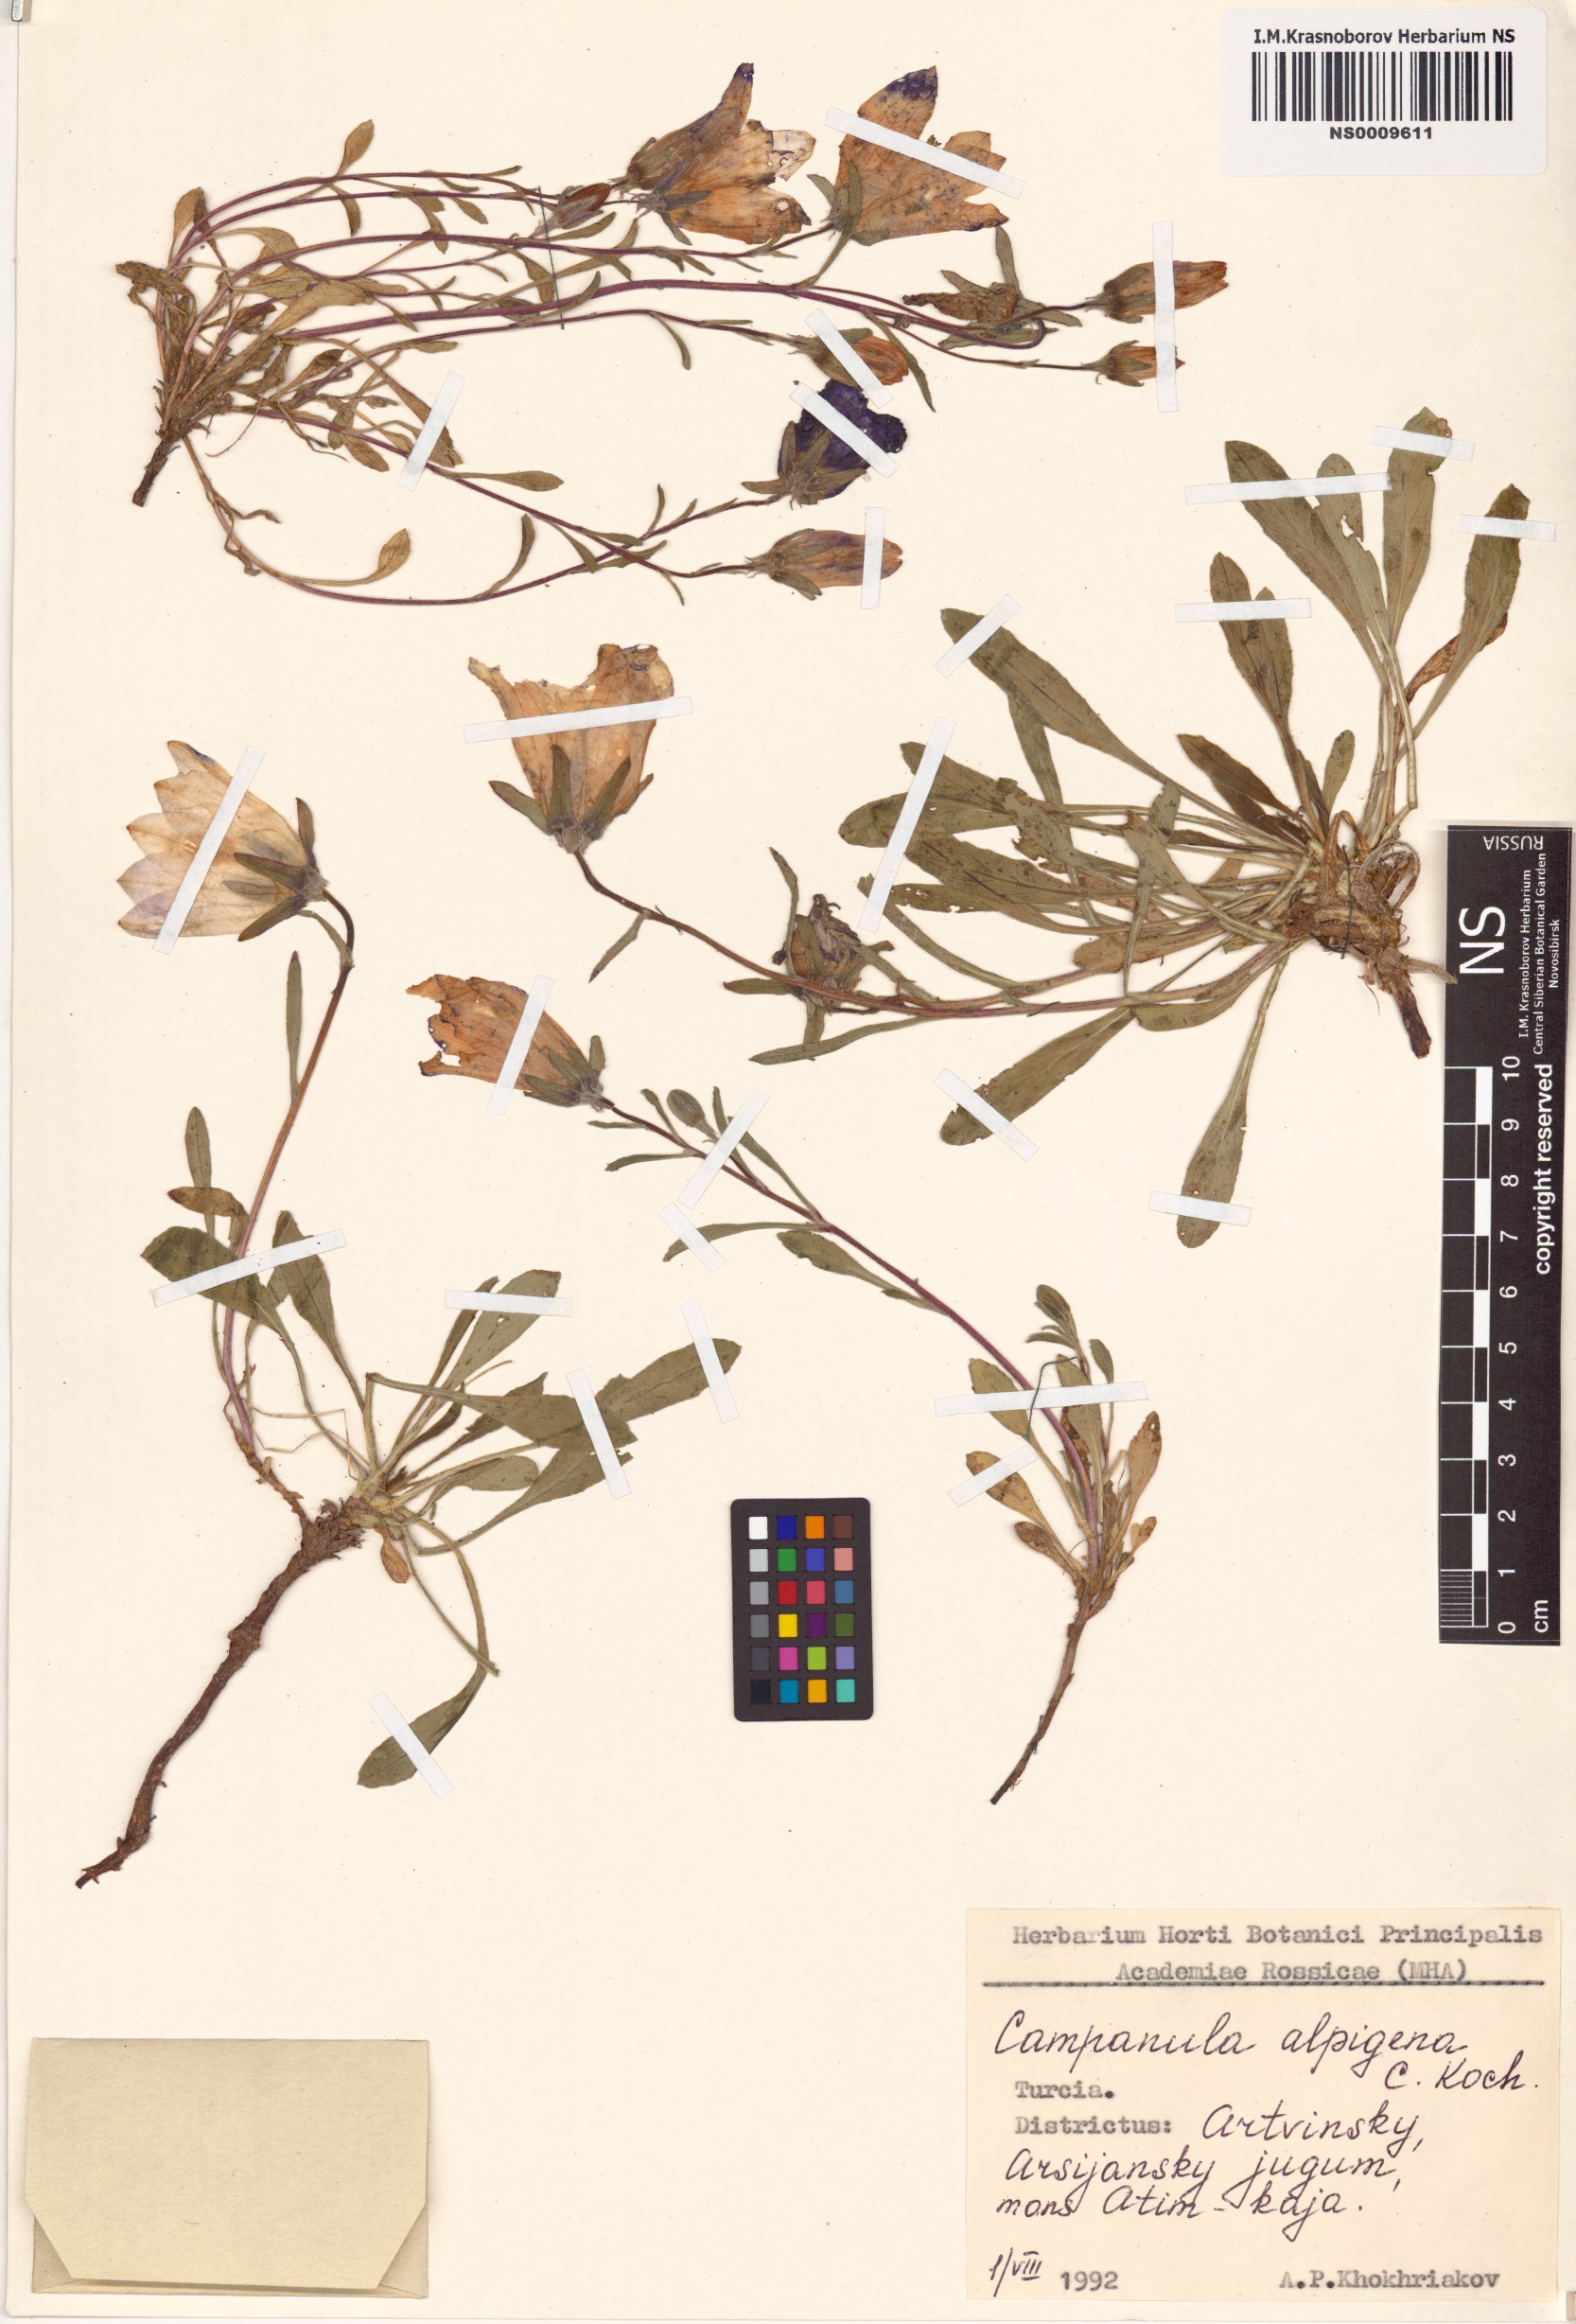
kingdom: Plantae
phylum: Tracheophyta
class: Magnoliopsida
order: Asterales
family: Campanulaceae
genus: Campanula
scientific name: Campanula saxifraga
